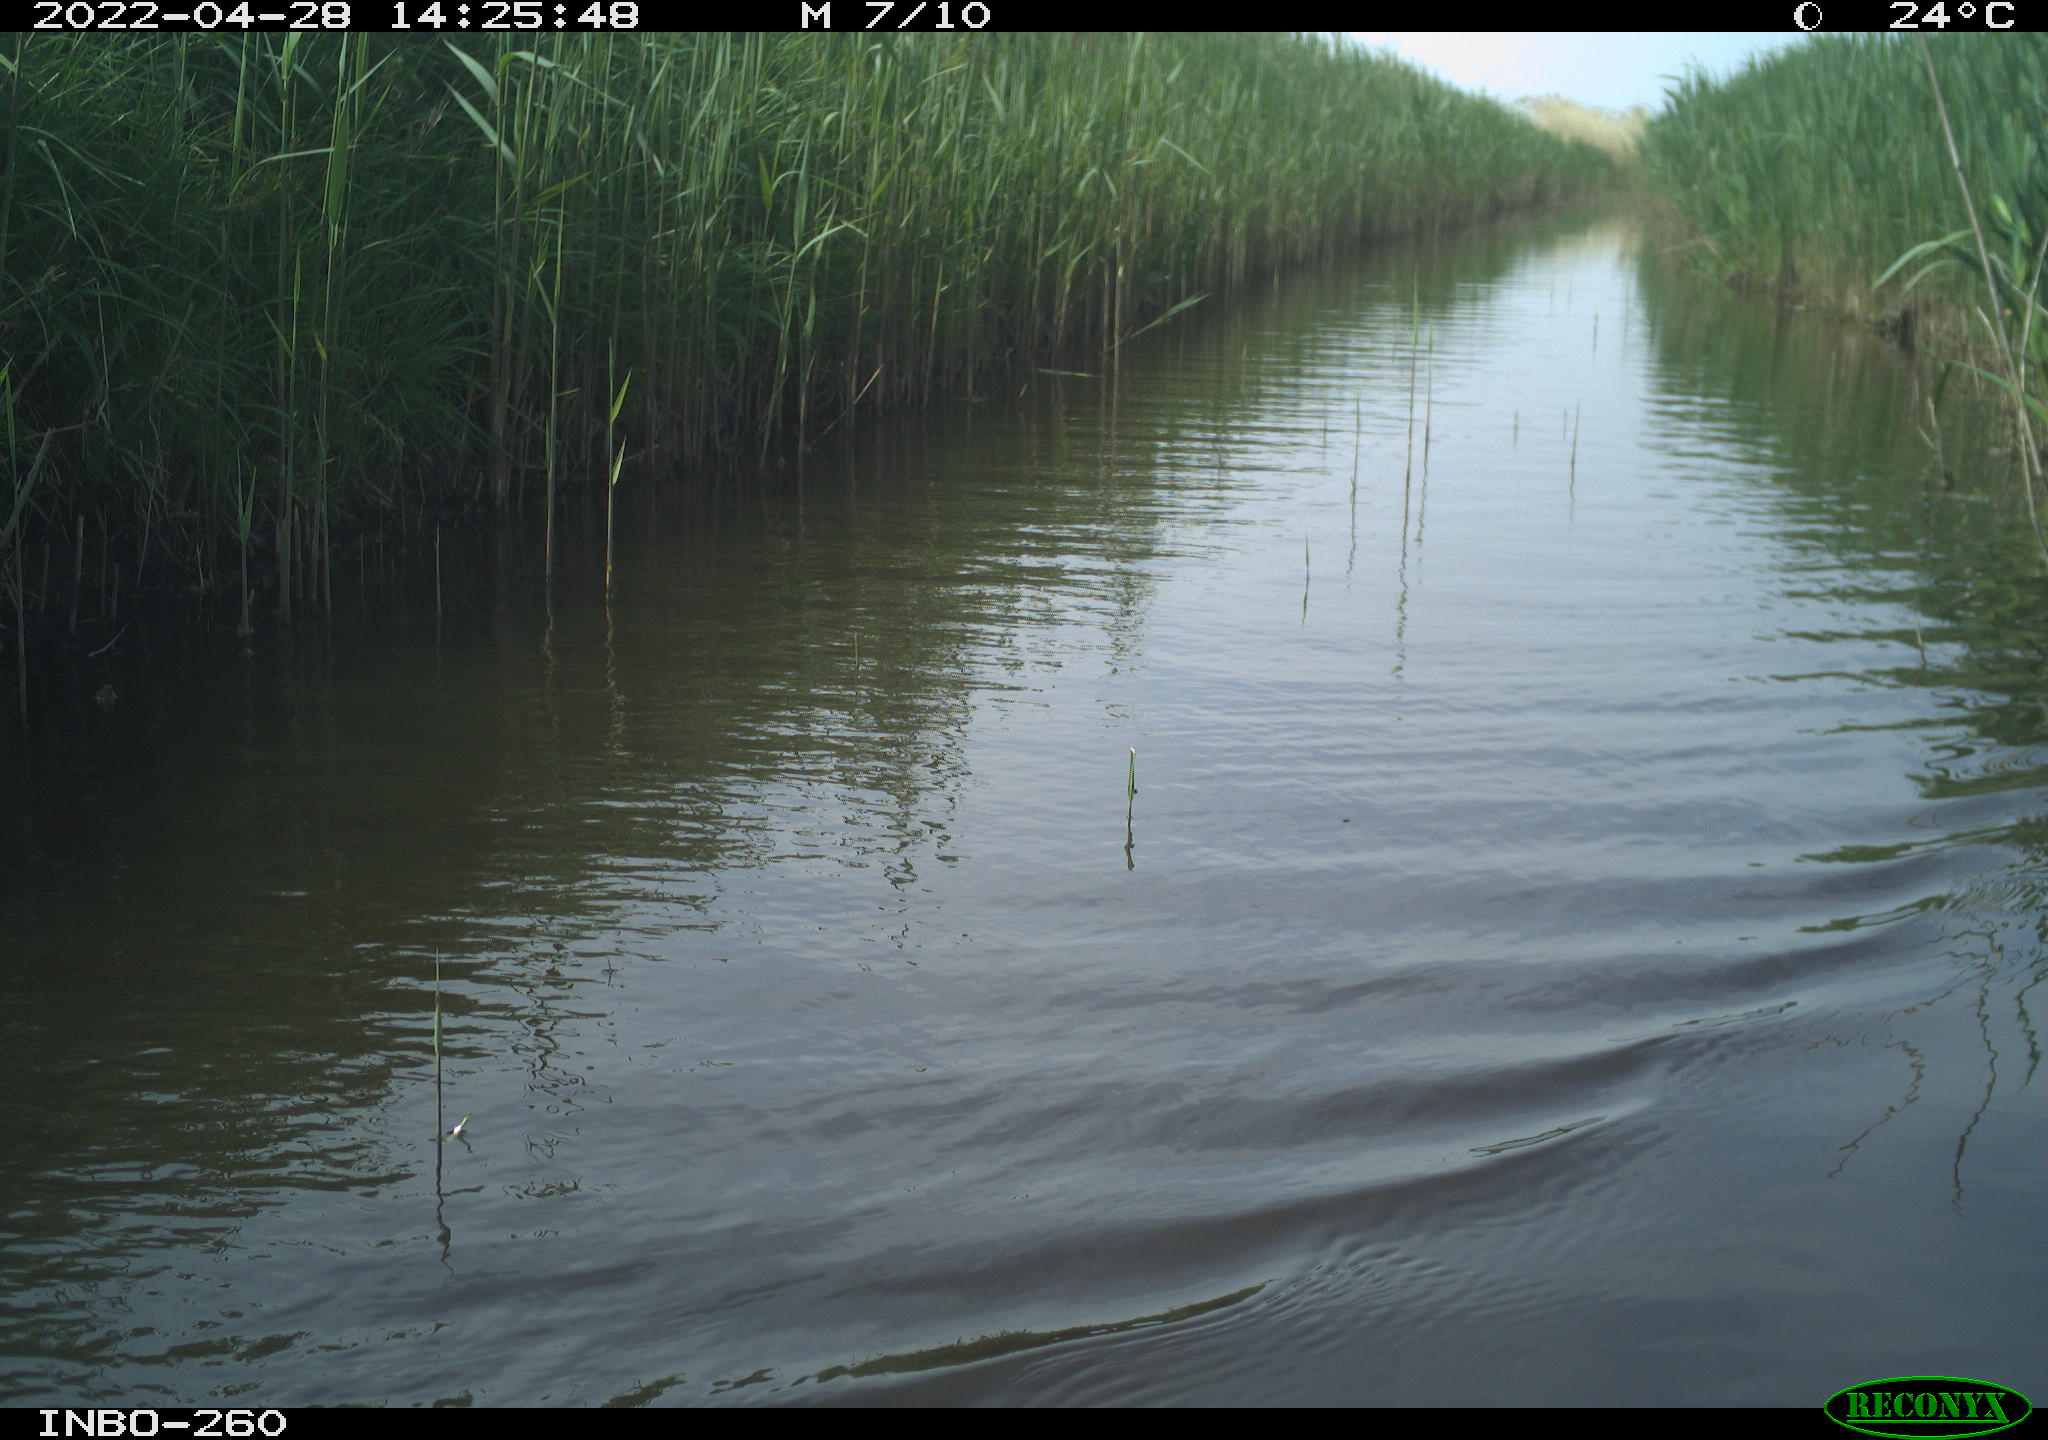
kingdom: Animalia
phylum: Chordata
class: Aves
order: Gruiformes
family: Rallidae
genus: Fulica
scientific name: Fulica atra
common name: Eurasian coot
